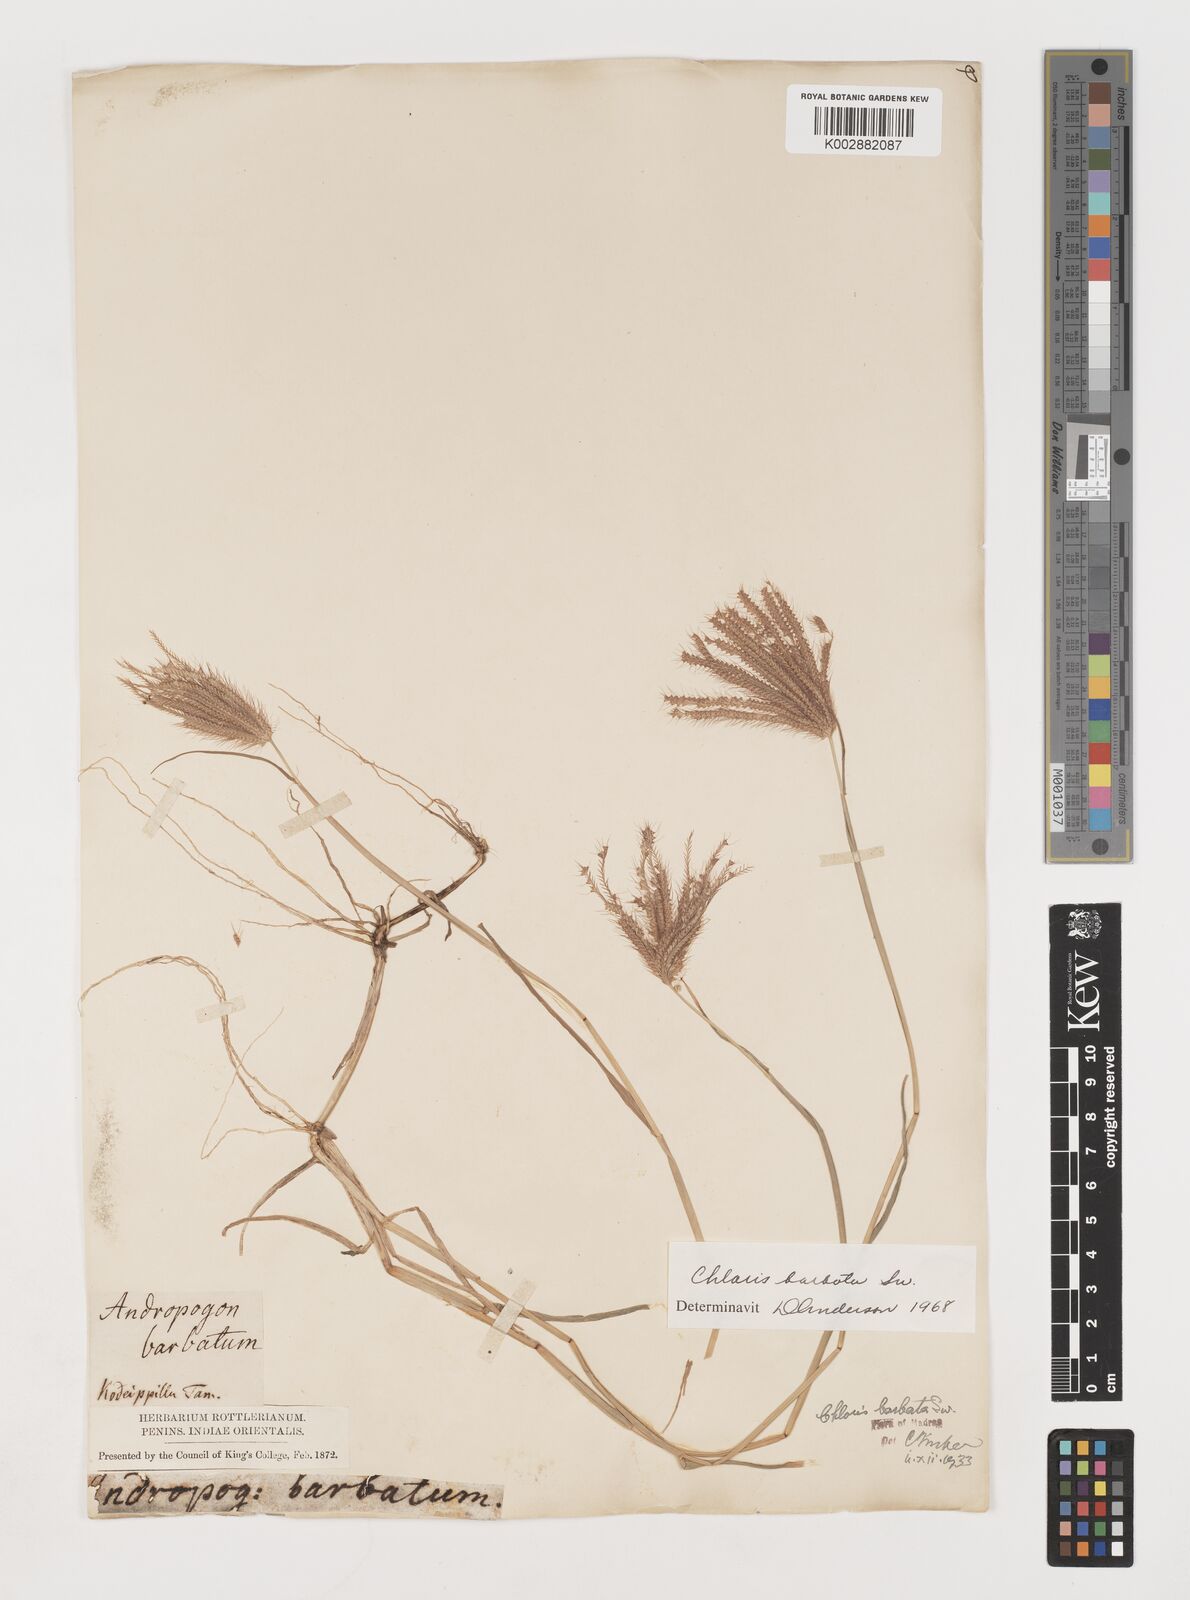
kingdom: Plantae
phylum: Tracheophyta
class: Liliopsida
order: Poales
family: Poaceae
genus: Chloris
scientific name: Chloris barbata
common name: Swollen fingergrass
